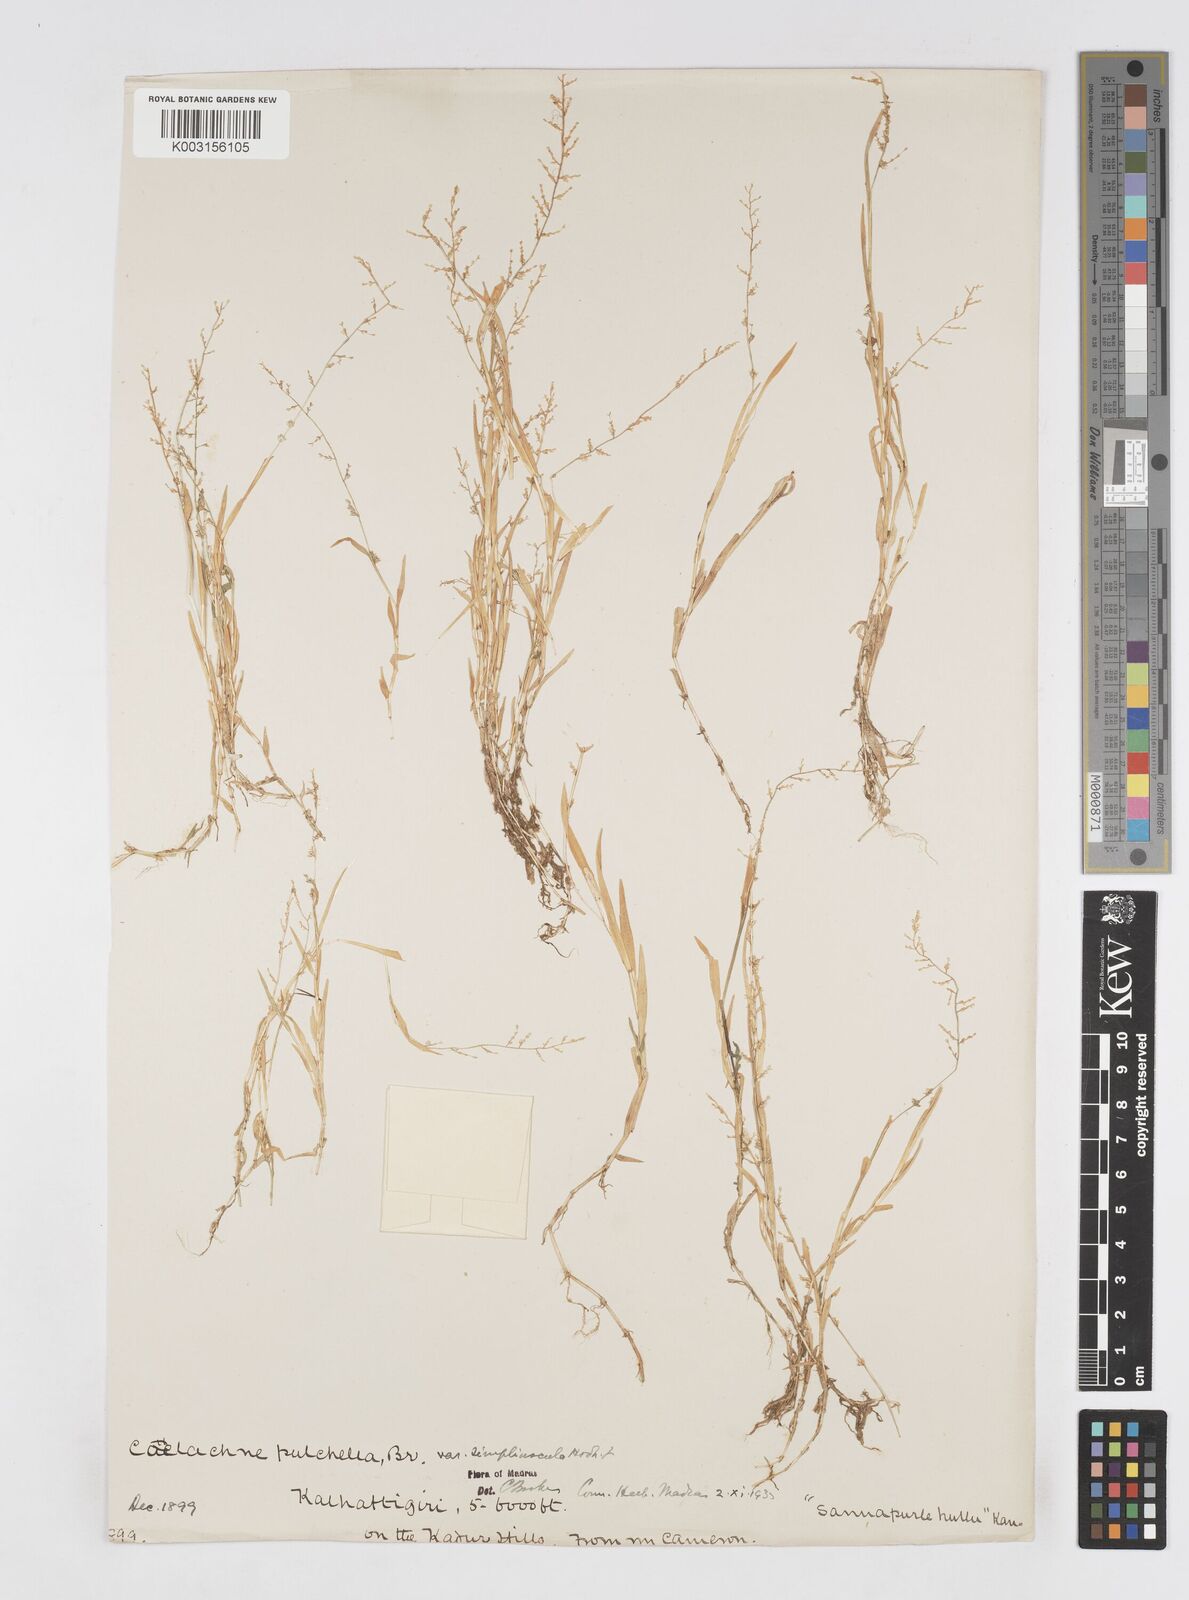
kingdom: Plantae
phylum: Tracheophyta
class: Liliopsida
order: Poales
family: Poaceae
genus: Coelachne
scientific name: Coelachne simpliciuscula
